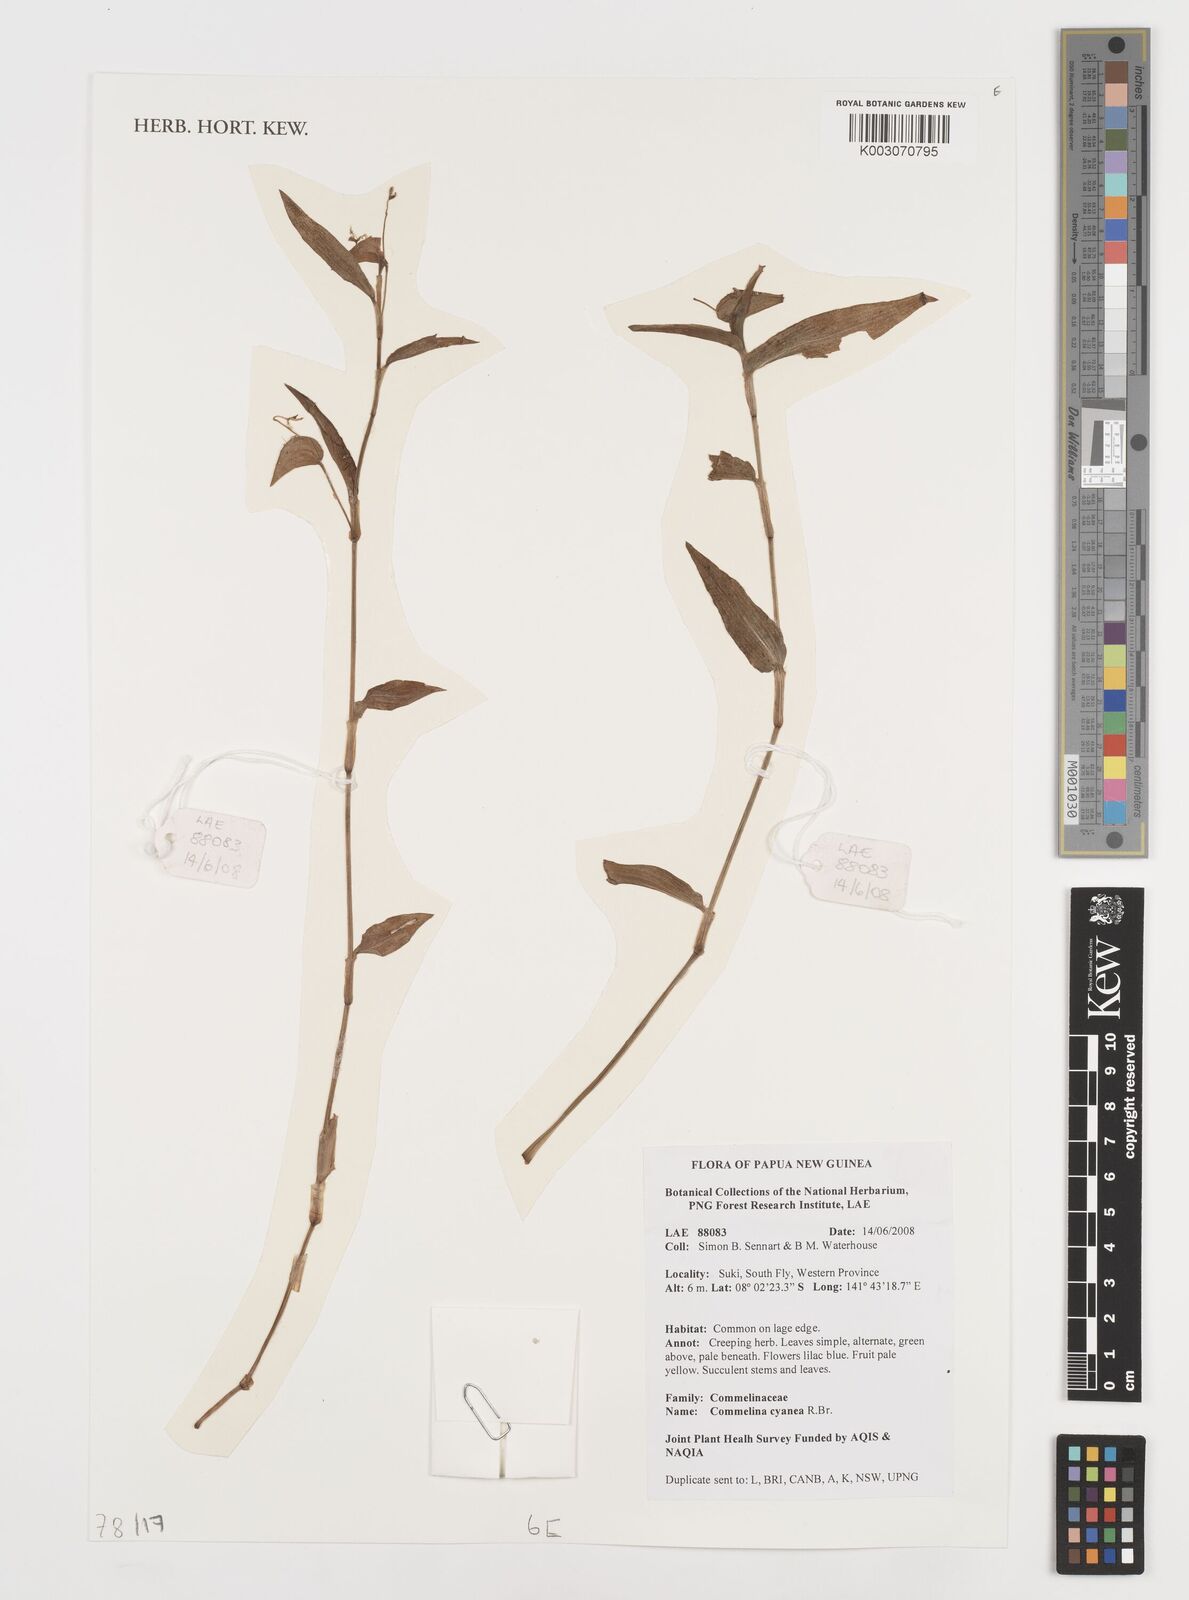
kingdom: Plantae
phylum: Tracheophyta
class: Liliopsida
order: Commelinales
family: Commelinaceae
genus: Commelina
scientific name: Commelina cyanea
